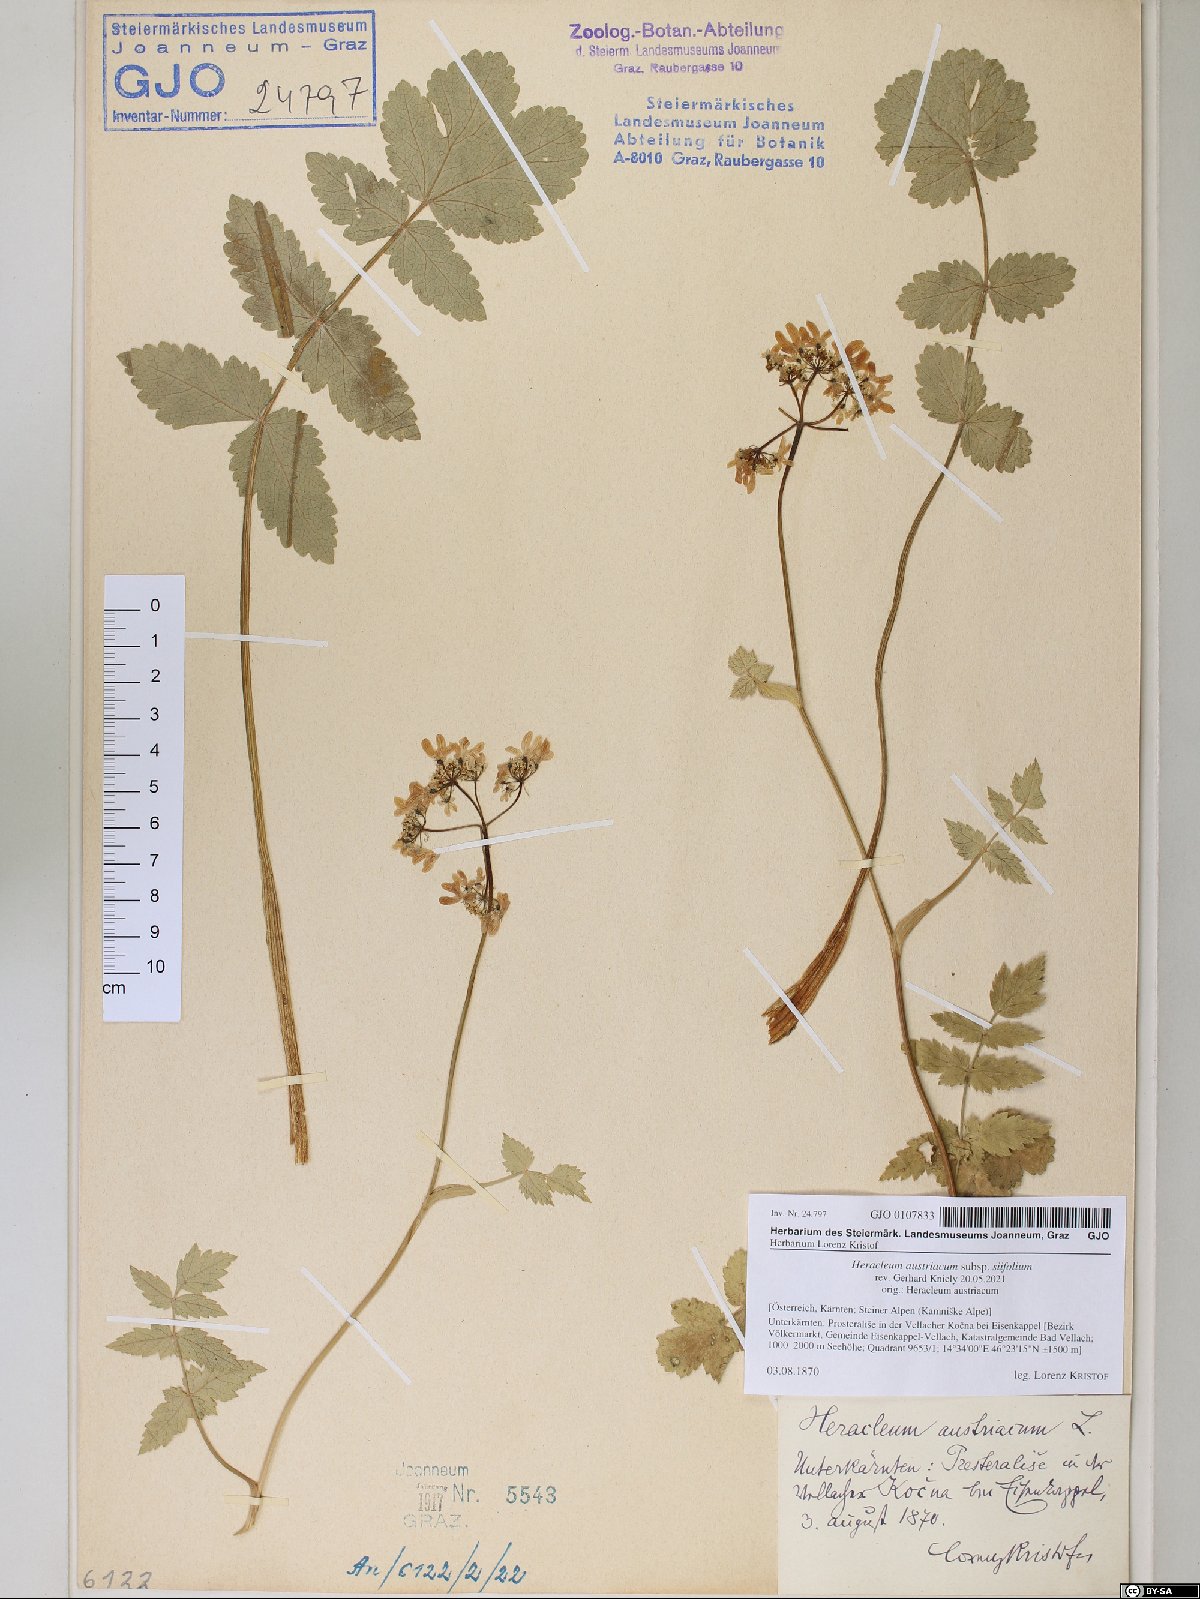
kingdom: Plantae
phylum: Tracheophyta
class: Magnoliopsida
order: Apiales
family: Apiaceae
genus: Heracleum
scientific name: Heracleum austriacum
